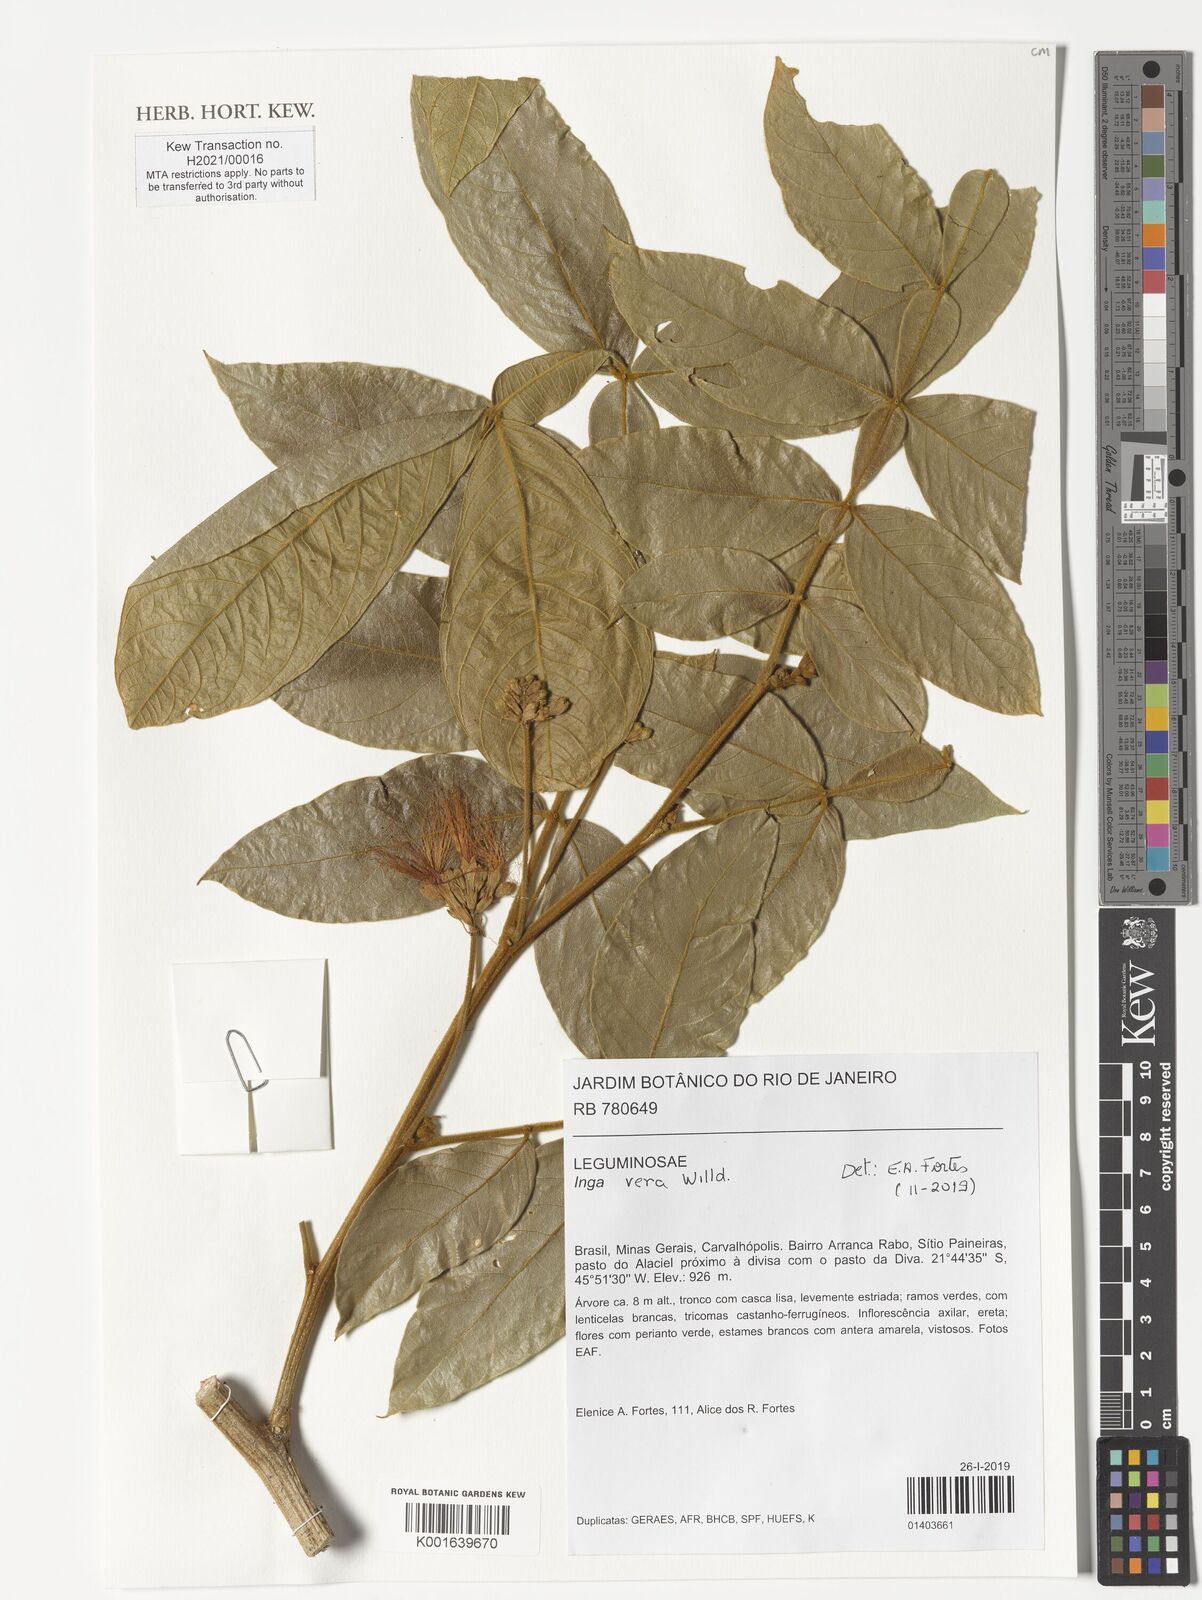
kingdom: Plantae
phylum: Tracheophyta
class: Magnoliopsida
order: Fabales
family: Fabaceae
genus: Inga
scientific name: Inga vera
